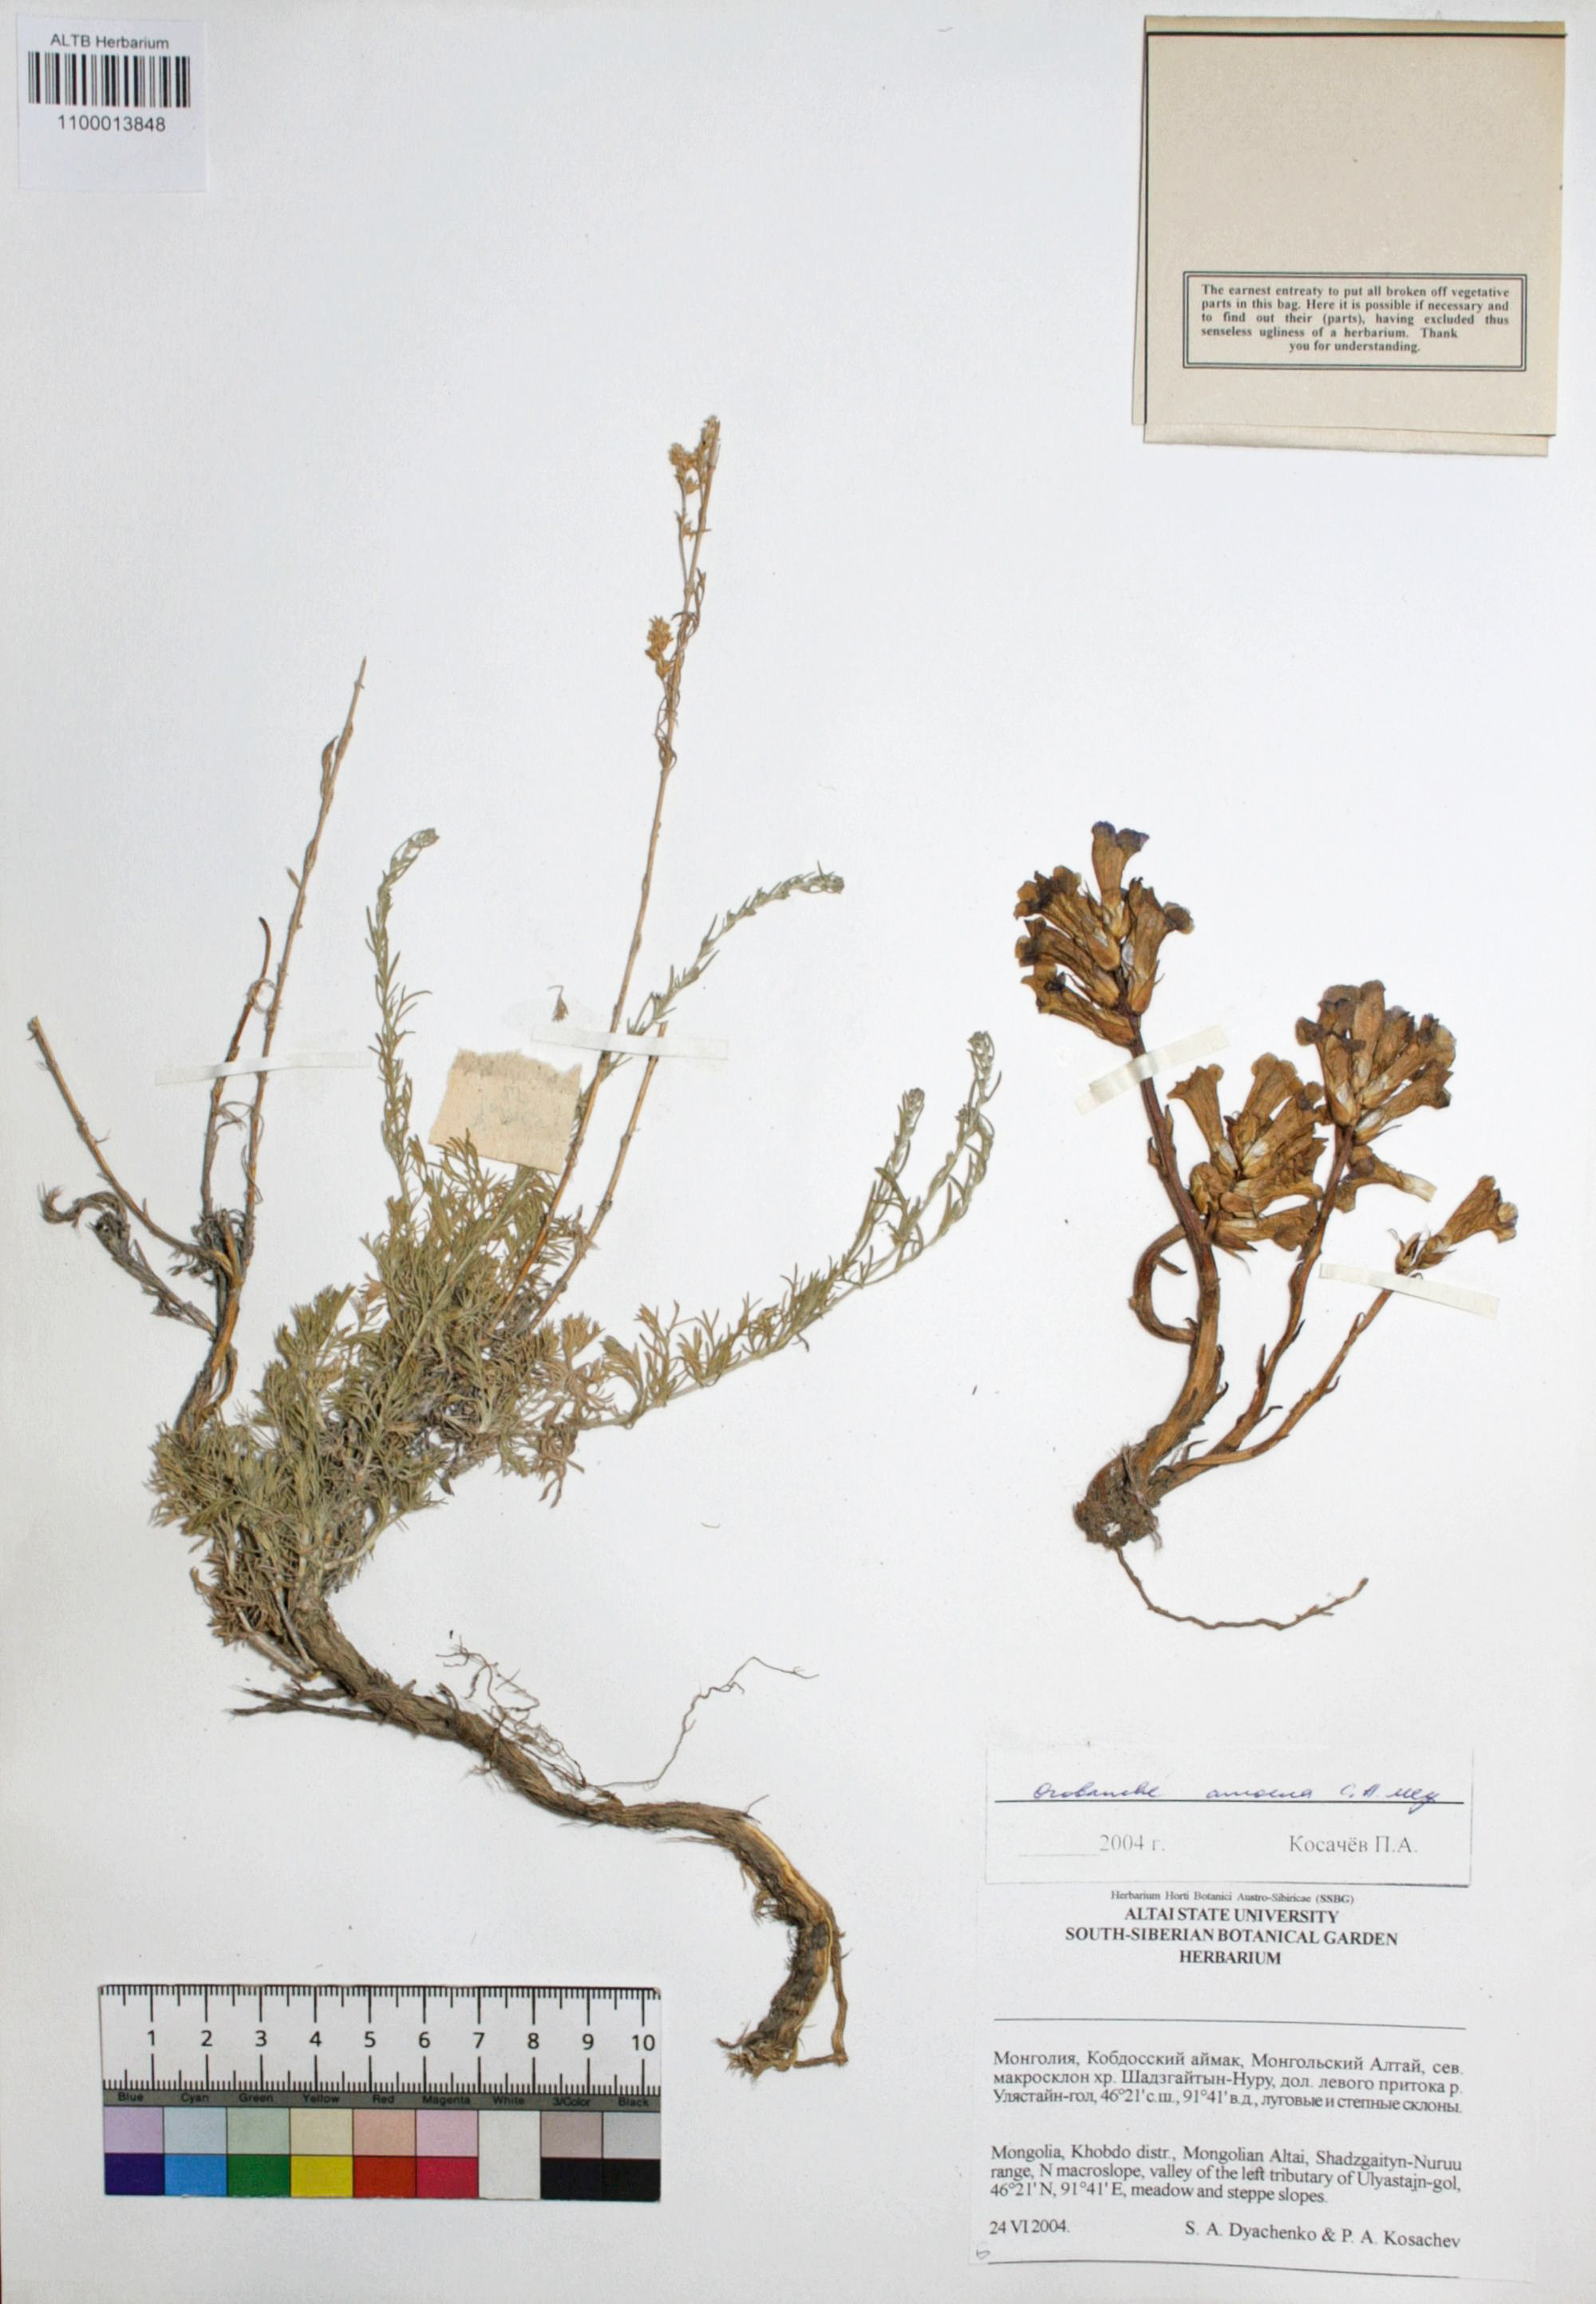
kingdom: Plantae
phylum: Tracheophyta
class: Magnoliopsida
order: Lamiales
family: Orobanchaceae
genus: Orobanche
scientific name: Orobanche amoena
